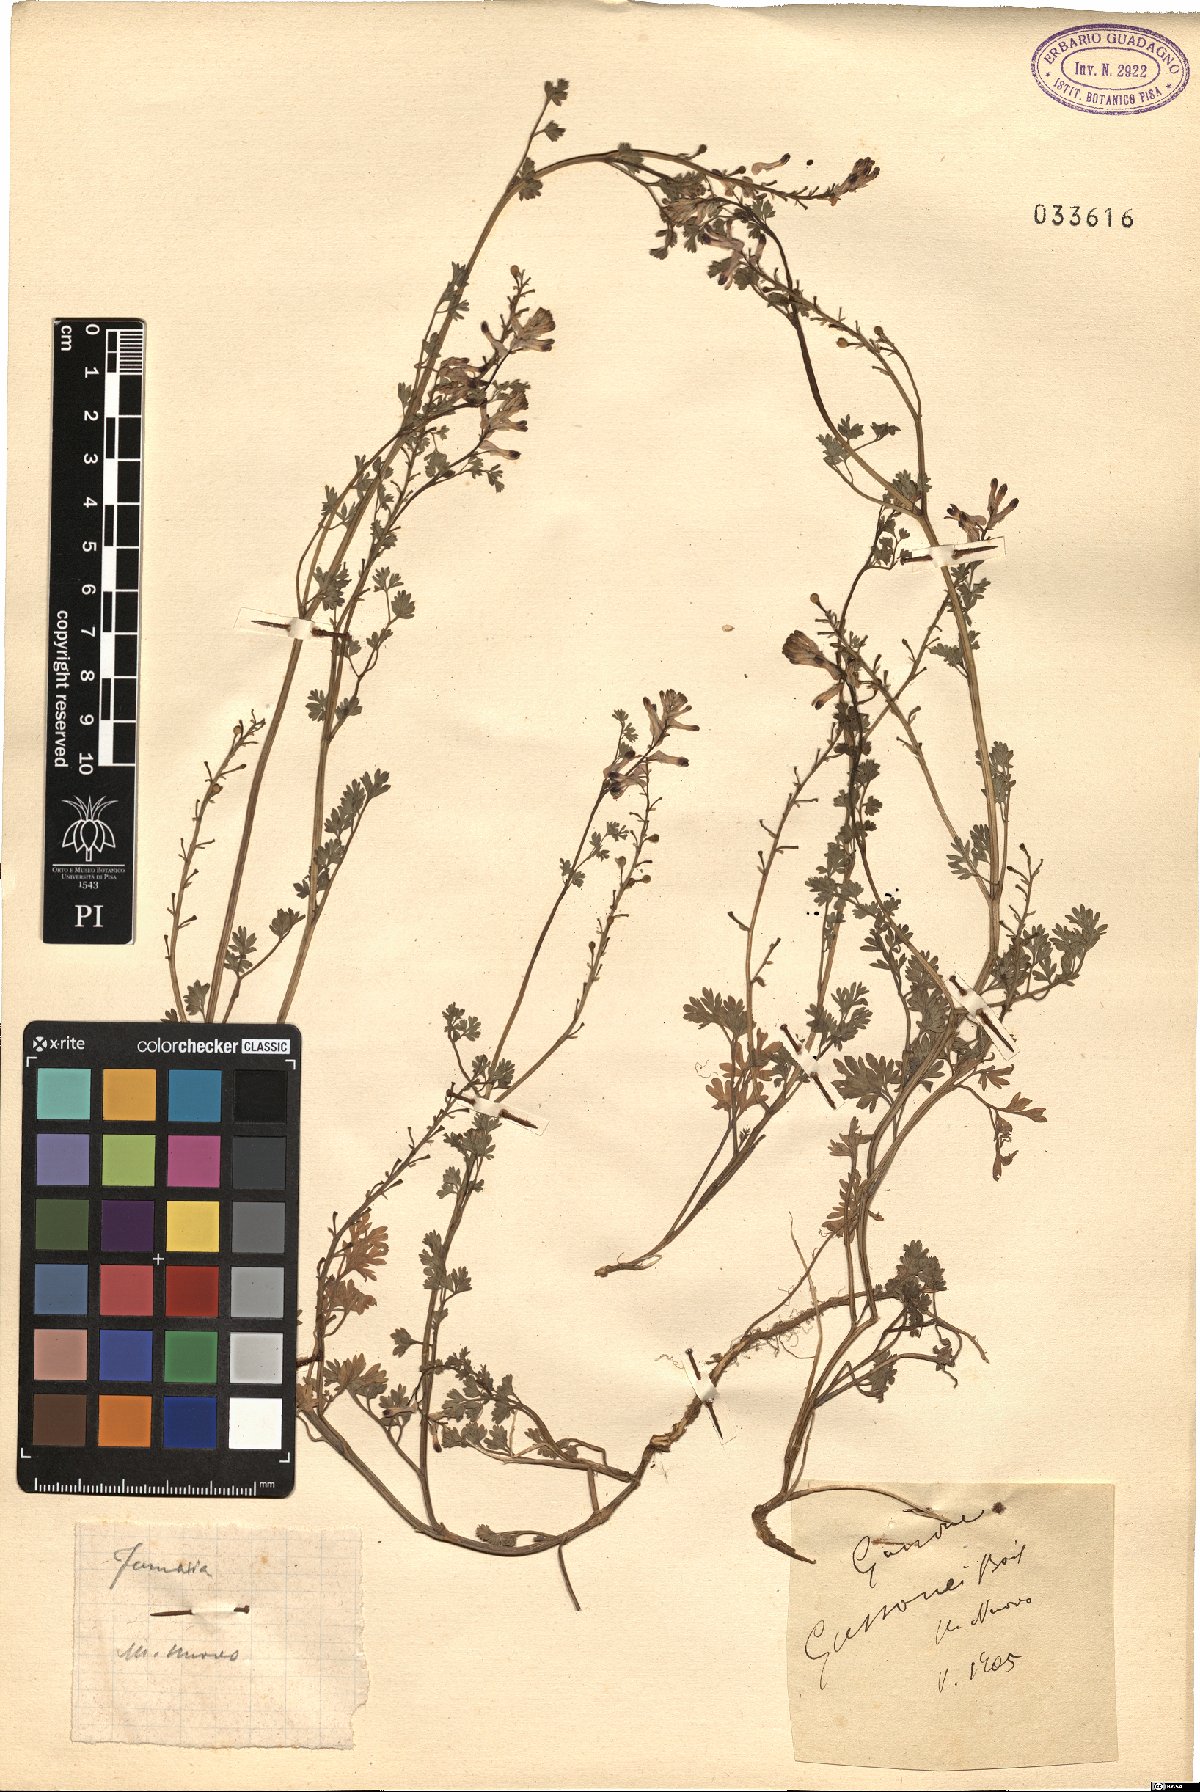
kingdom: Plantae
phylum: Tracheophyta
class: Magnoliopsida
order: Ranunculales
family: Papaveraceae
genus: Fumaria
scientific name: Fumaria bastardii
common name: Tall ramping-fumitory
